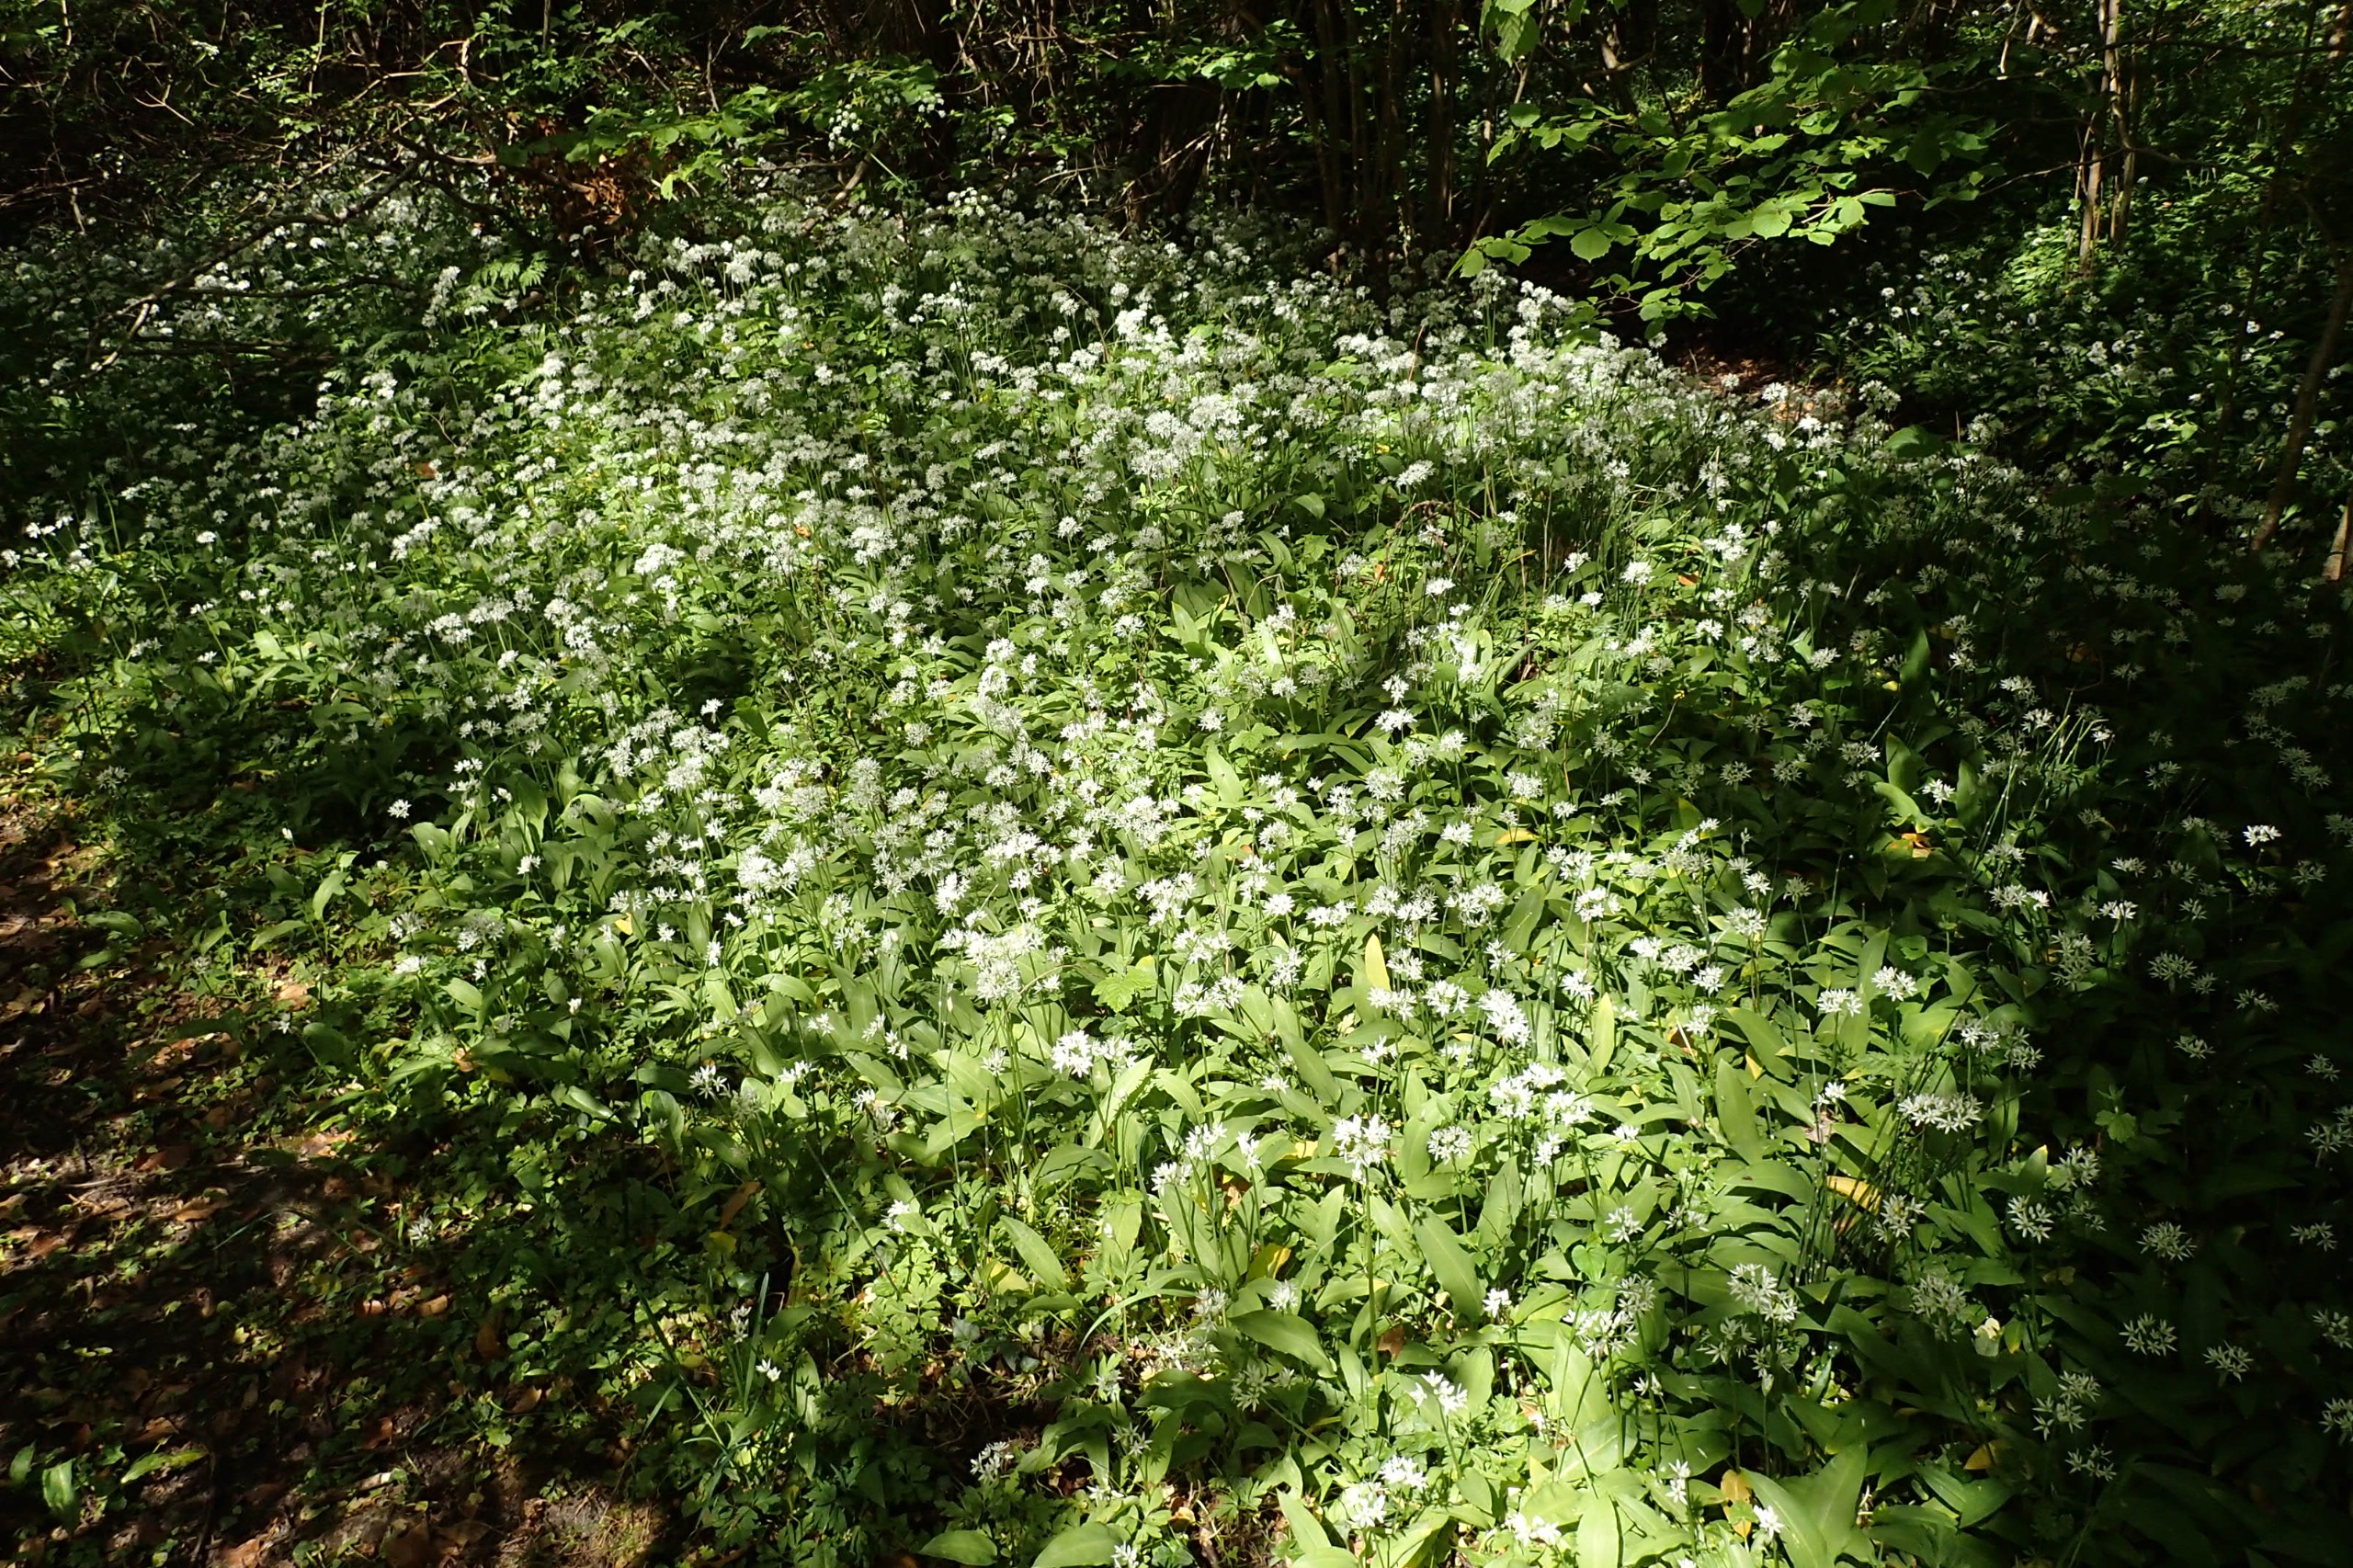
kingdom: Plantae
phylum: Tracheophyta
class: Liliopsida
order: Asparagales
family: Amaryllidaceae
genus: Allium
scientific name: Allium ursinum
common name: Rams-løg
